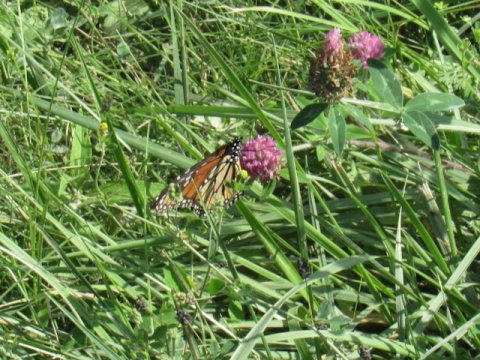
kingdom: Animalia
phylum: Arthropoda
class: Insecta
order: Lepidoptera
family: Nymphalidae
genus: Danaus
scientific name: Danaus plexippus
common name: Monarch
